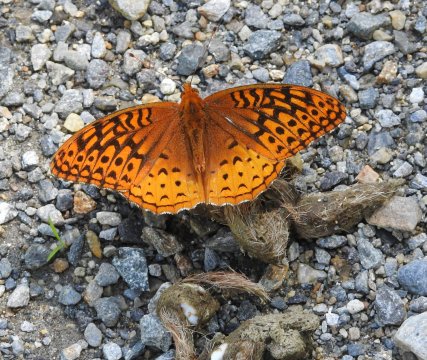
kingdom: Animalia
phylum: Arthropoda
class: Insecta
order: Lepidoptera
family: Nymphalidae
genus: Speyeria
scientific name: Speyeria cybele
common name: Great Spangled Fritillary
